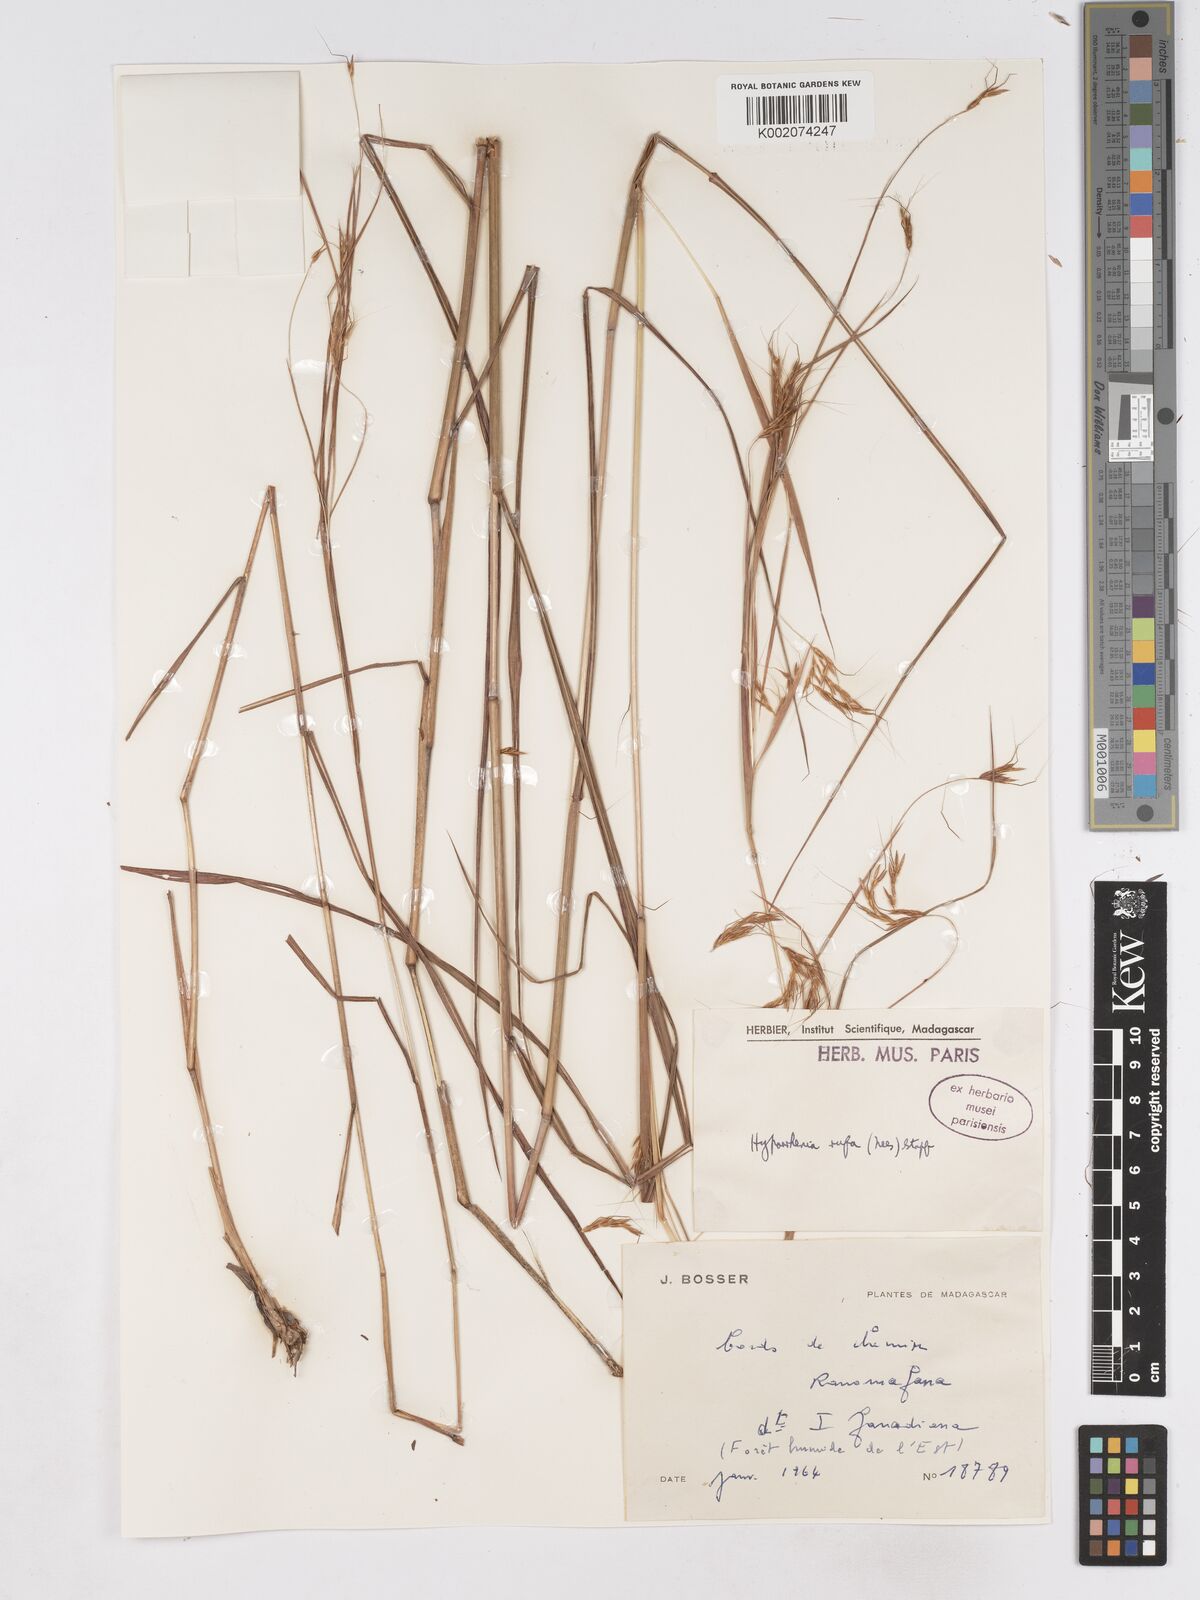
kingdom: Plantae
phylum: Tracheophyta
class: Liliopsida
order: Poales
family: Poaceae
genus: Hyparrhenia
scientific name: Hyparrhenia rufa
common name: Jaraguagrass
